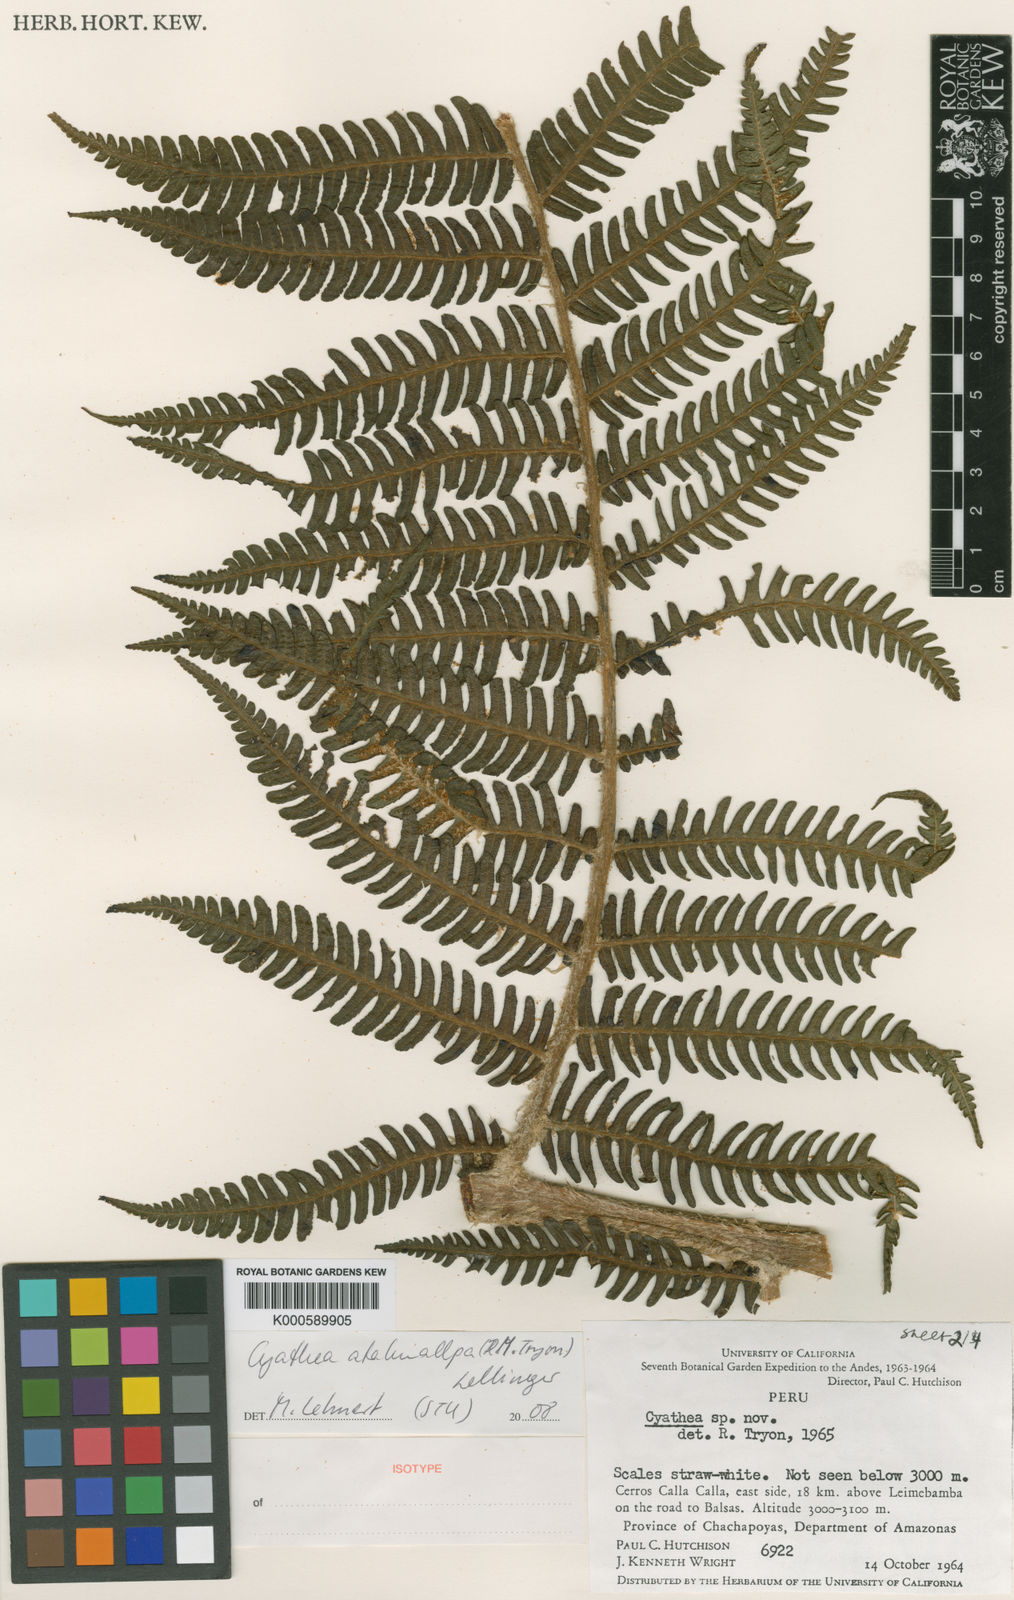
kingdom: Plantae
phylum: Tracheophyta
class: Polypodiopsida
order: Cyatheales
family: Cyatheaceae
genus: Cyathea
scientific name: Cyathea atahuallpa
